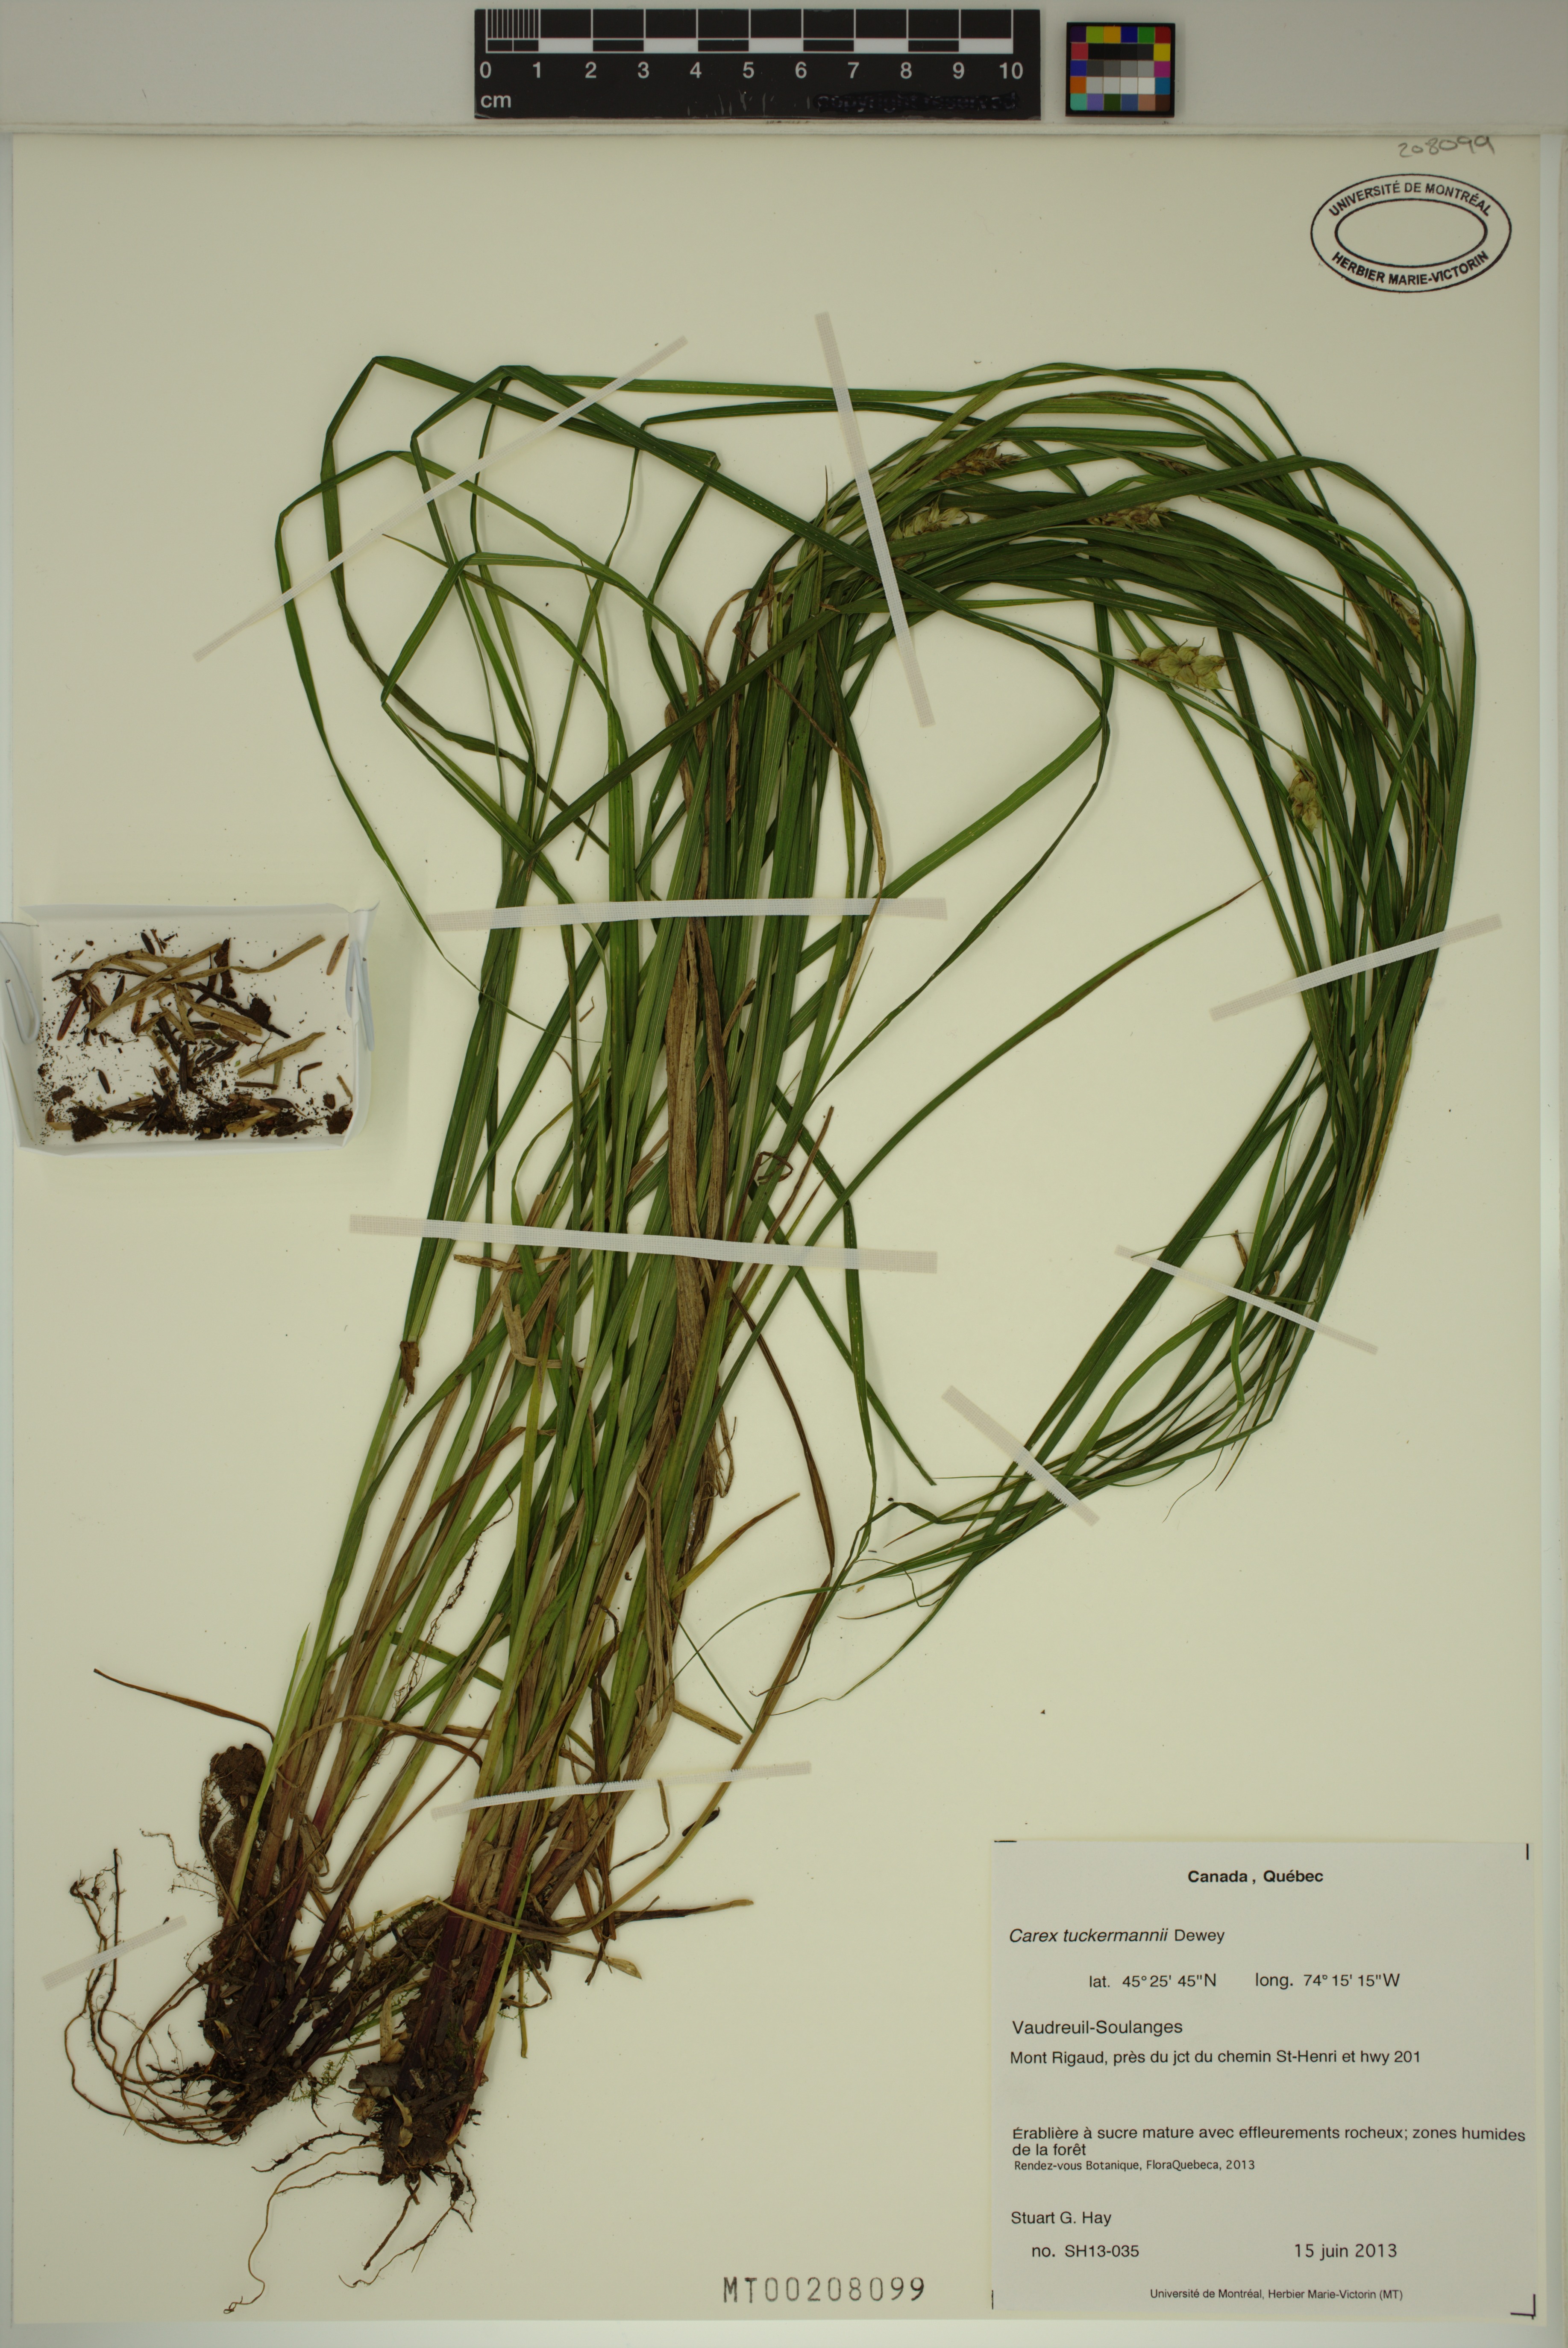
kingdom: Plantae
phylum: Tracheophyta
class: Liliopsida
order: Poales
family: Cyperaceae
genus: Carex
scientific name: Carex tuckermanii
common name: Tuckerman's sedge
